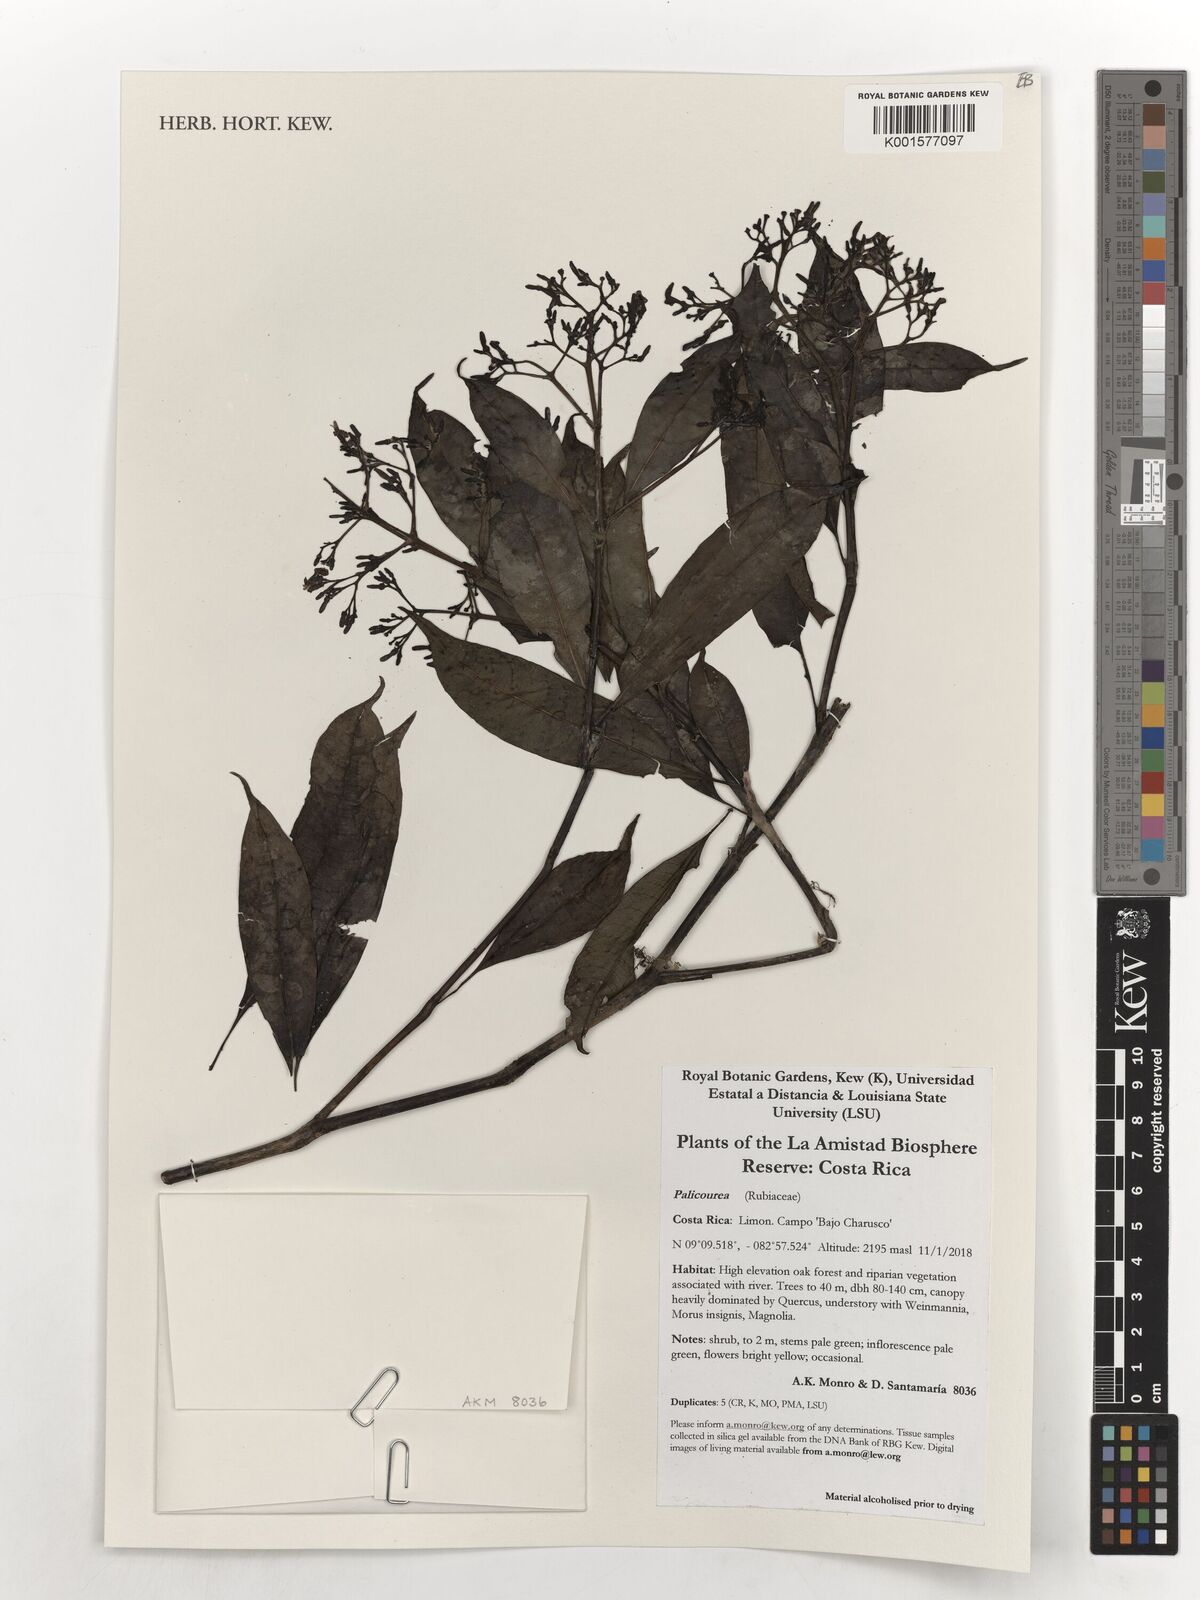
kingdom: Plantae
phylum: Tracheophyta
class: Magnoliopsida
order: Gentianales
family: Rubiaceae
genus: Palicourea
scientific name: Palicourea
